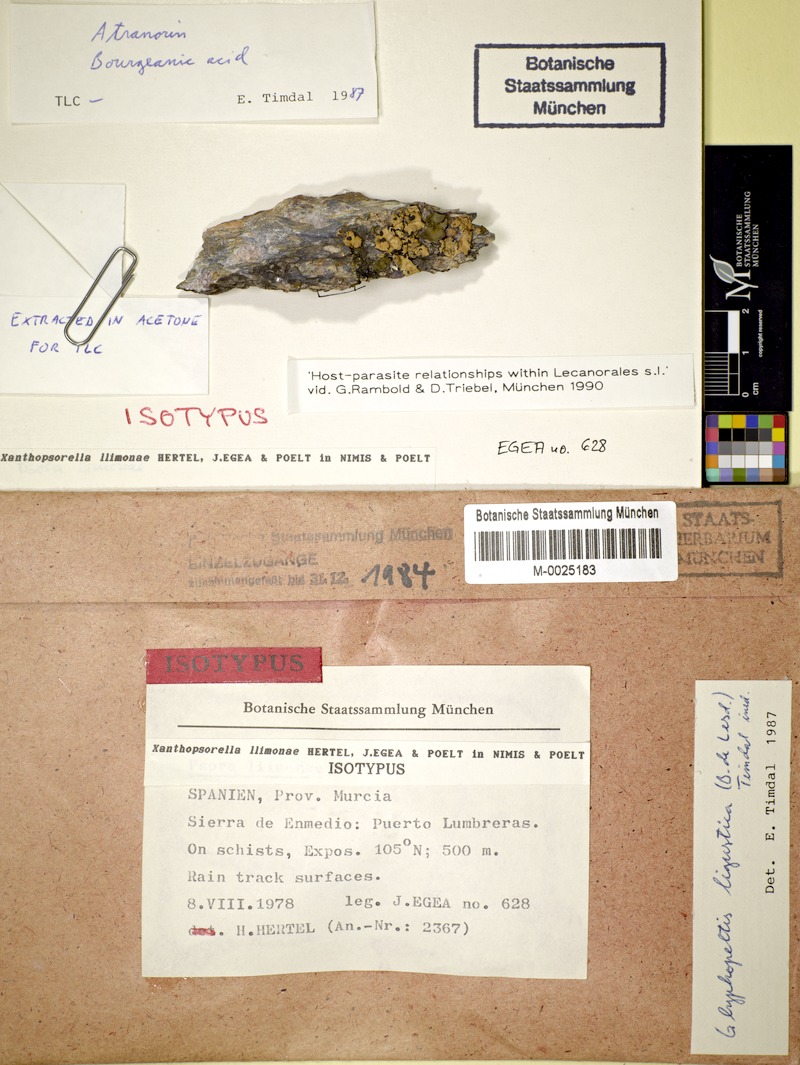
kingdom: Fungi
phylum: Ascomycota
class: Lecanoromycetes
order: Lecanorales
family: Psoraceae
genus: Glyphopeltis
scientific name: Glyphopeltis ligustica
